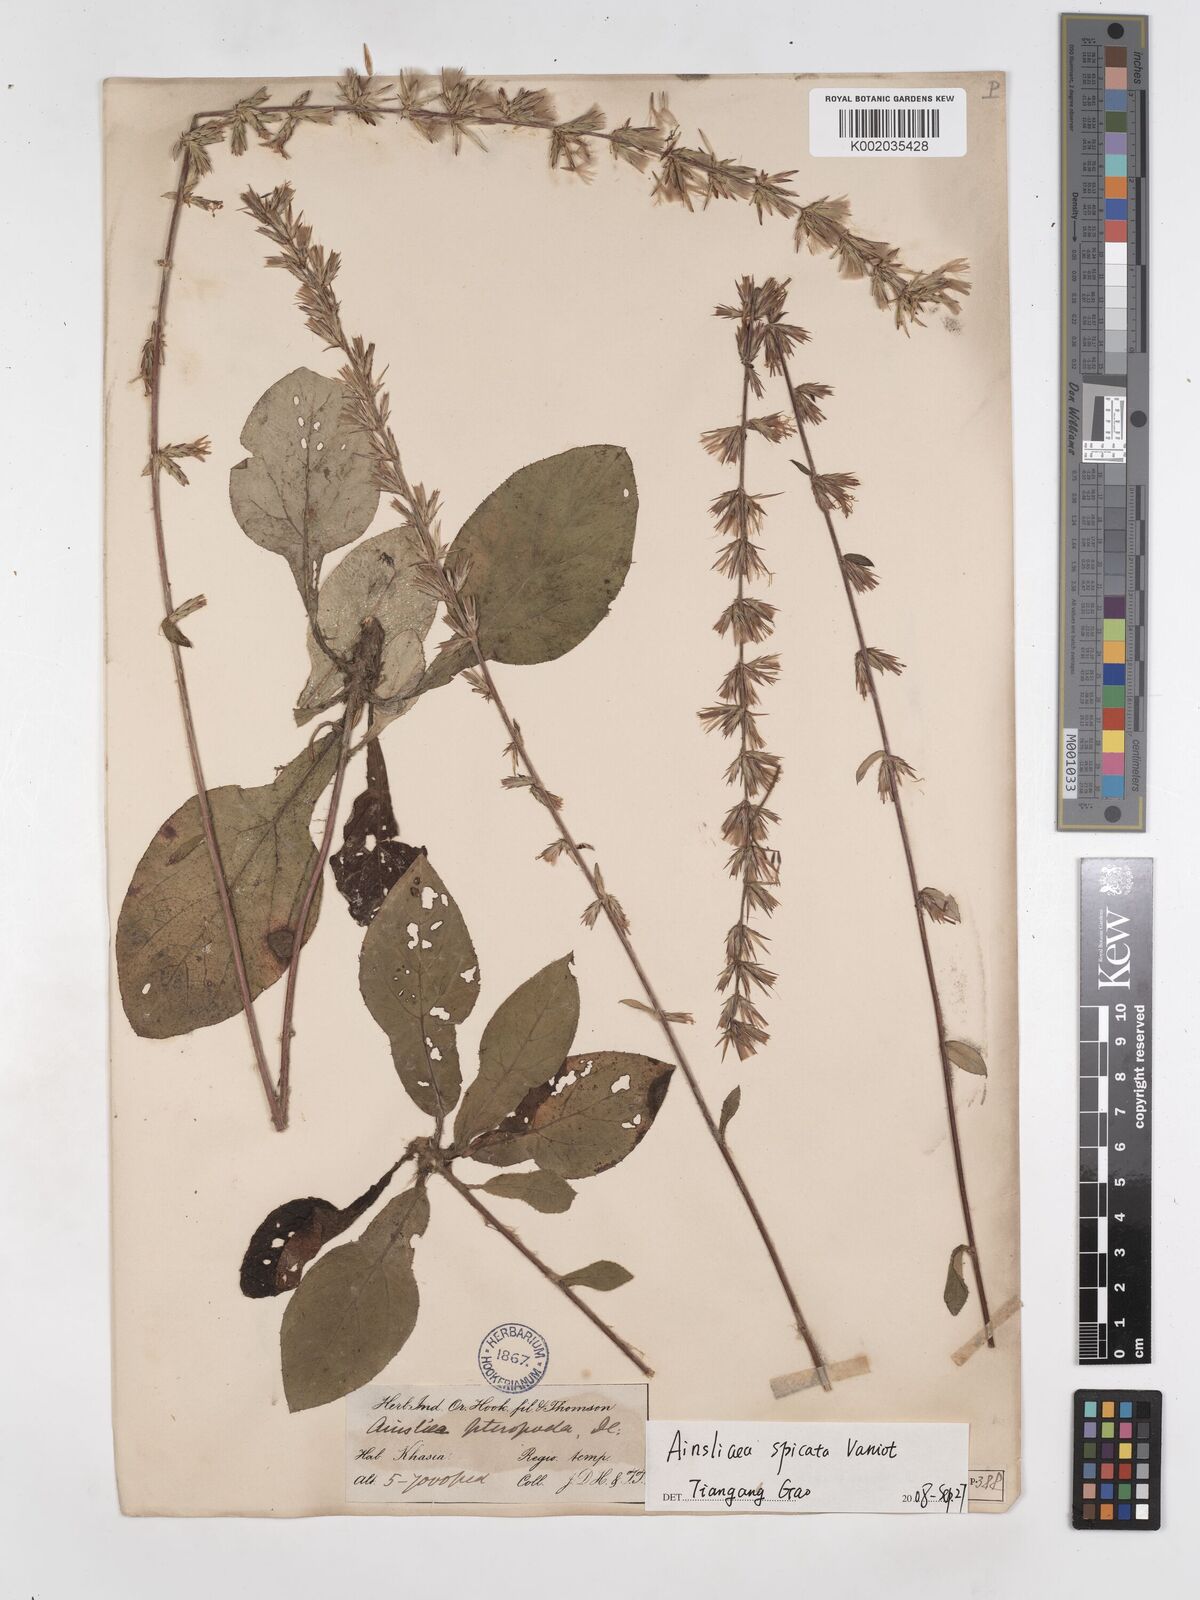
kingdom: Plantae
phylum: Tracheophyta
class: Magnoliopsida
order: Asterales
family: Asteraceae
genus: Ainsliaea
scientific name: Ainsliaea spicata
